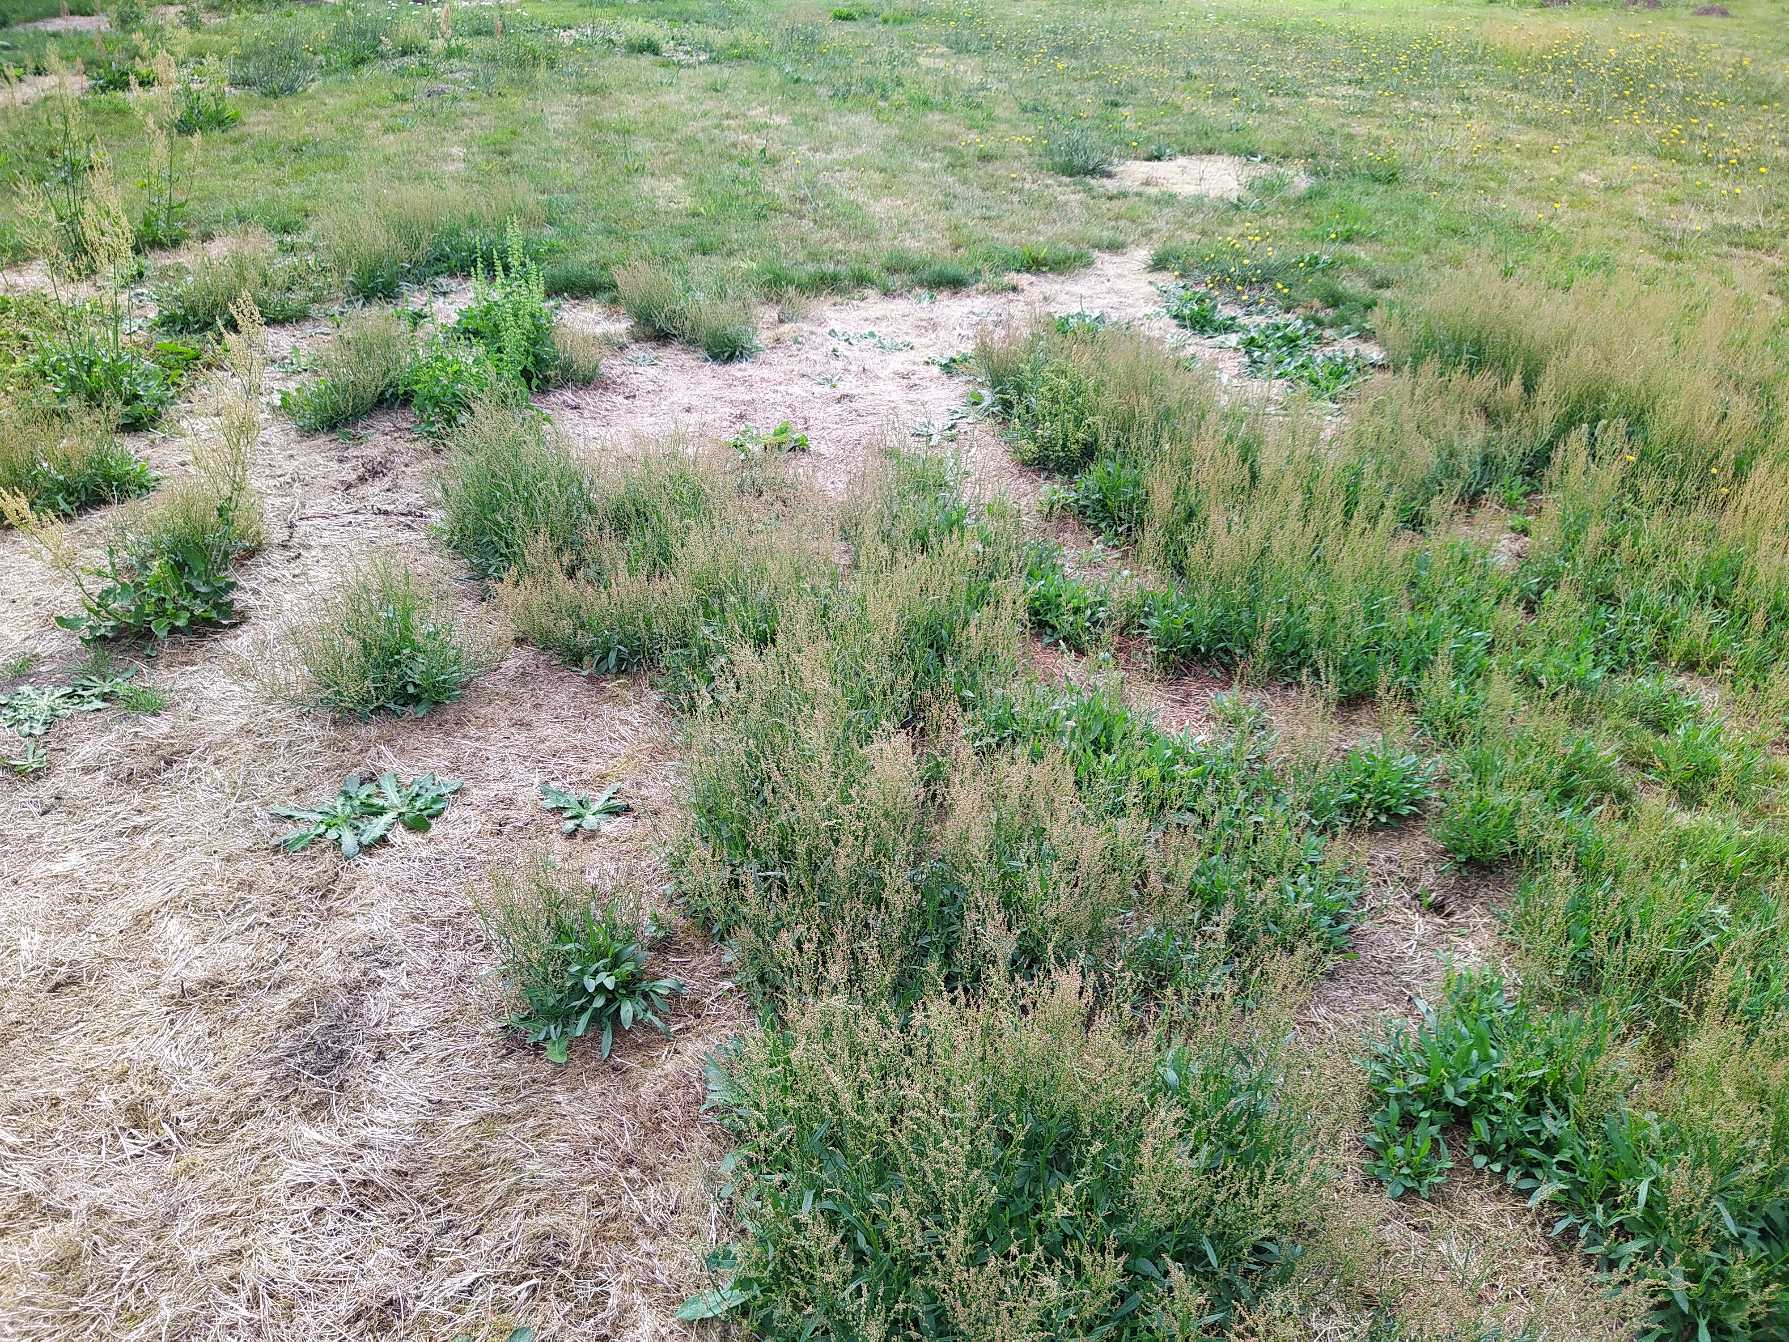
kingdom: Plantae
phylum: Tracheophyta
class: Magnoliopsida
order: Caryophyllales
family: Polygonaceae
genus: Rumex
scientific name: Rumex acetosella
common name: Rødknæ
